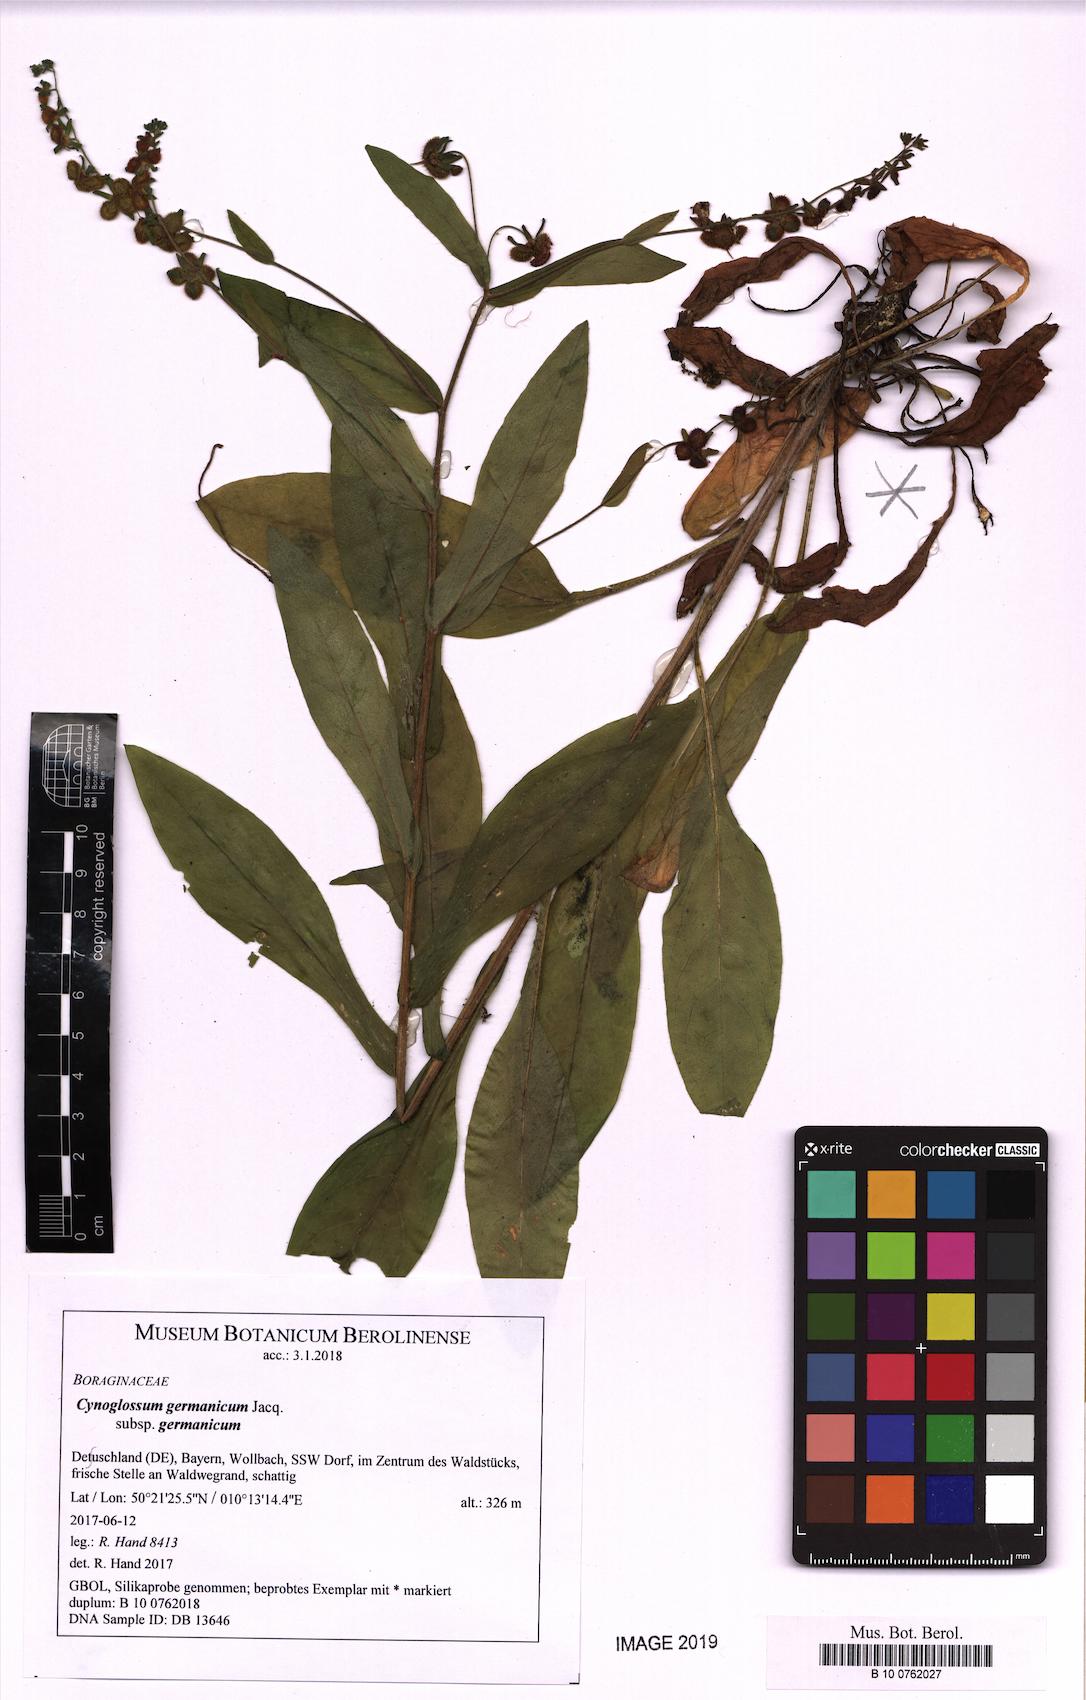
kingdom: Plantae
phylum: Tracheophyta
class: Magnoliopsida
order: Boraginales
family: Boraginaceae
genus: Cynoglossum
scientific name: Cynoglossum germanicum
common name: Green hound's-tongue
